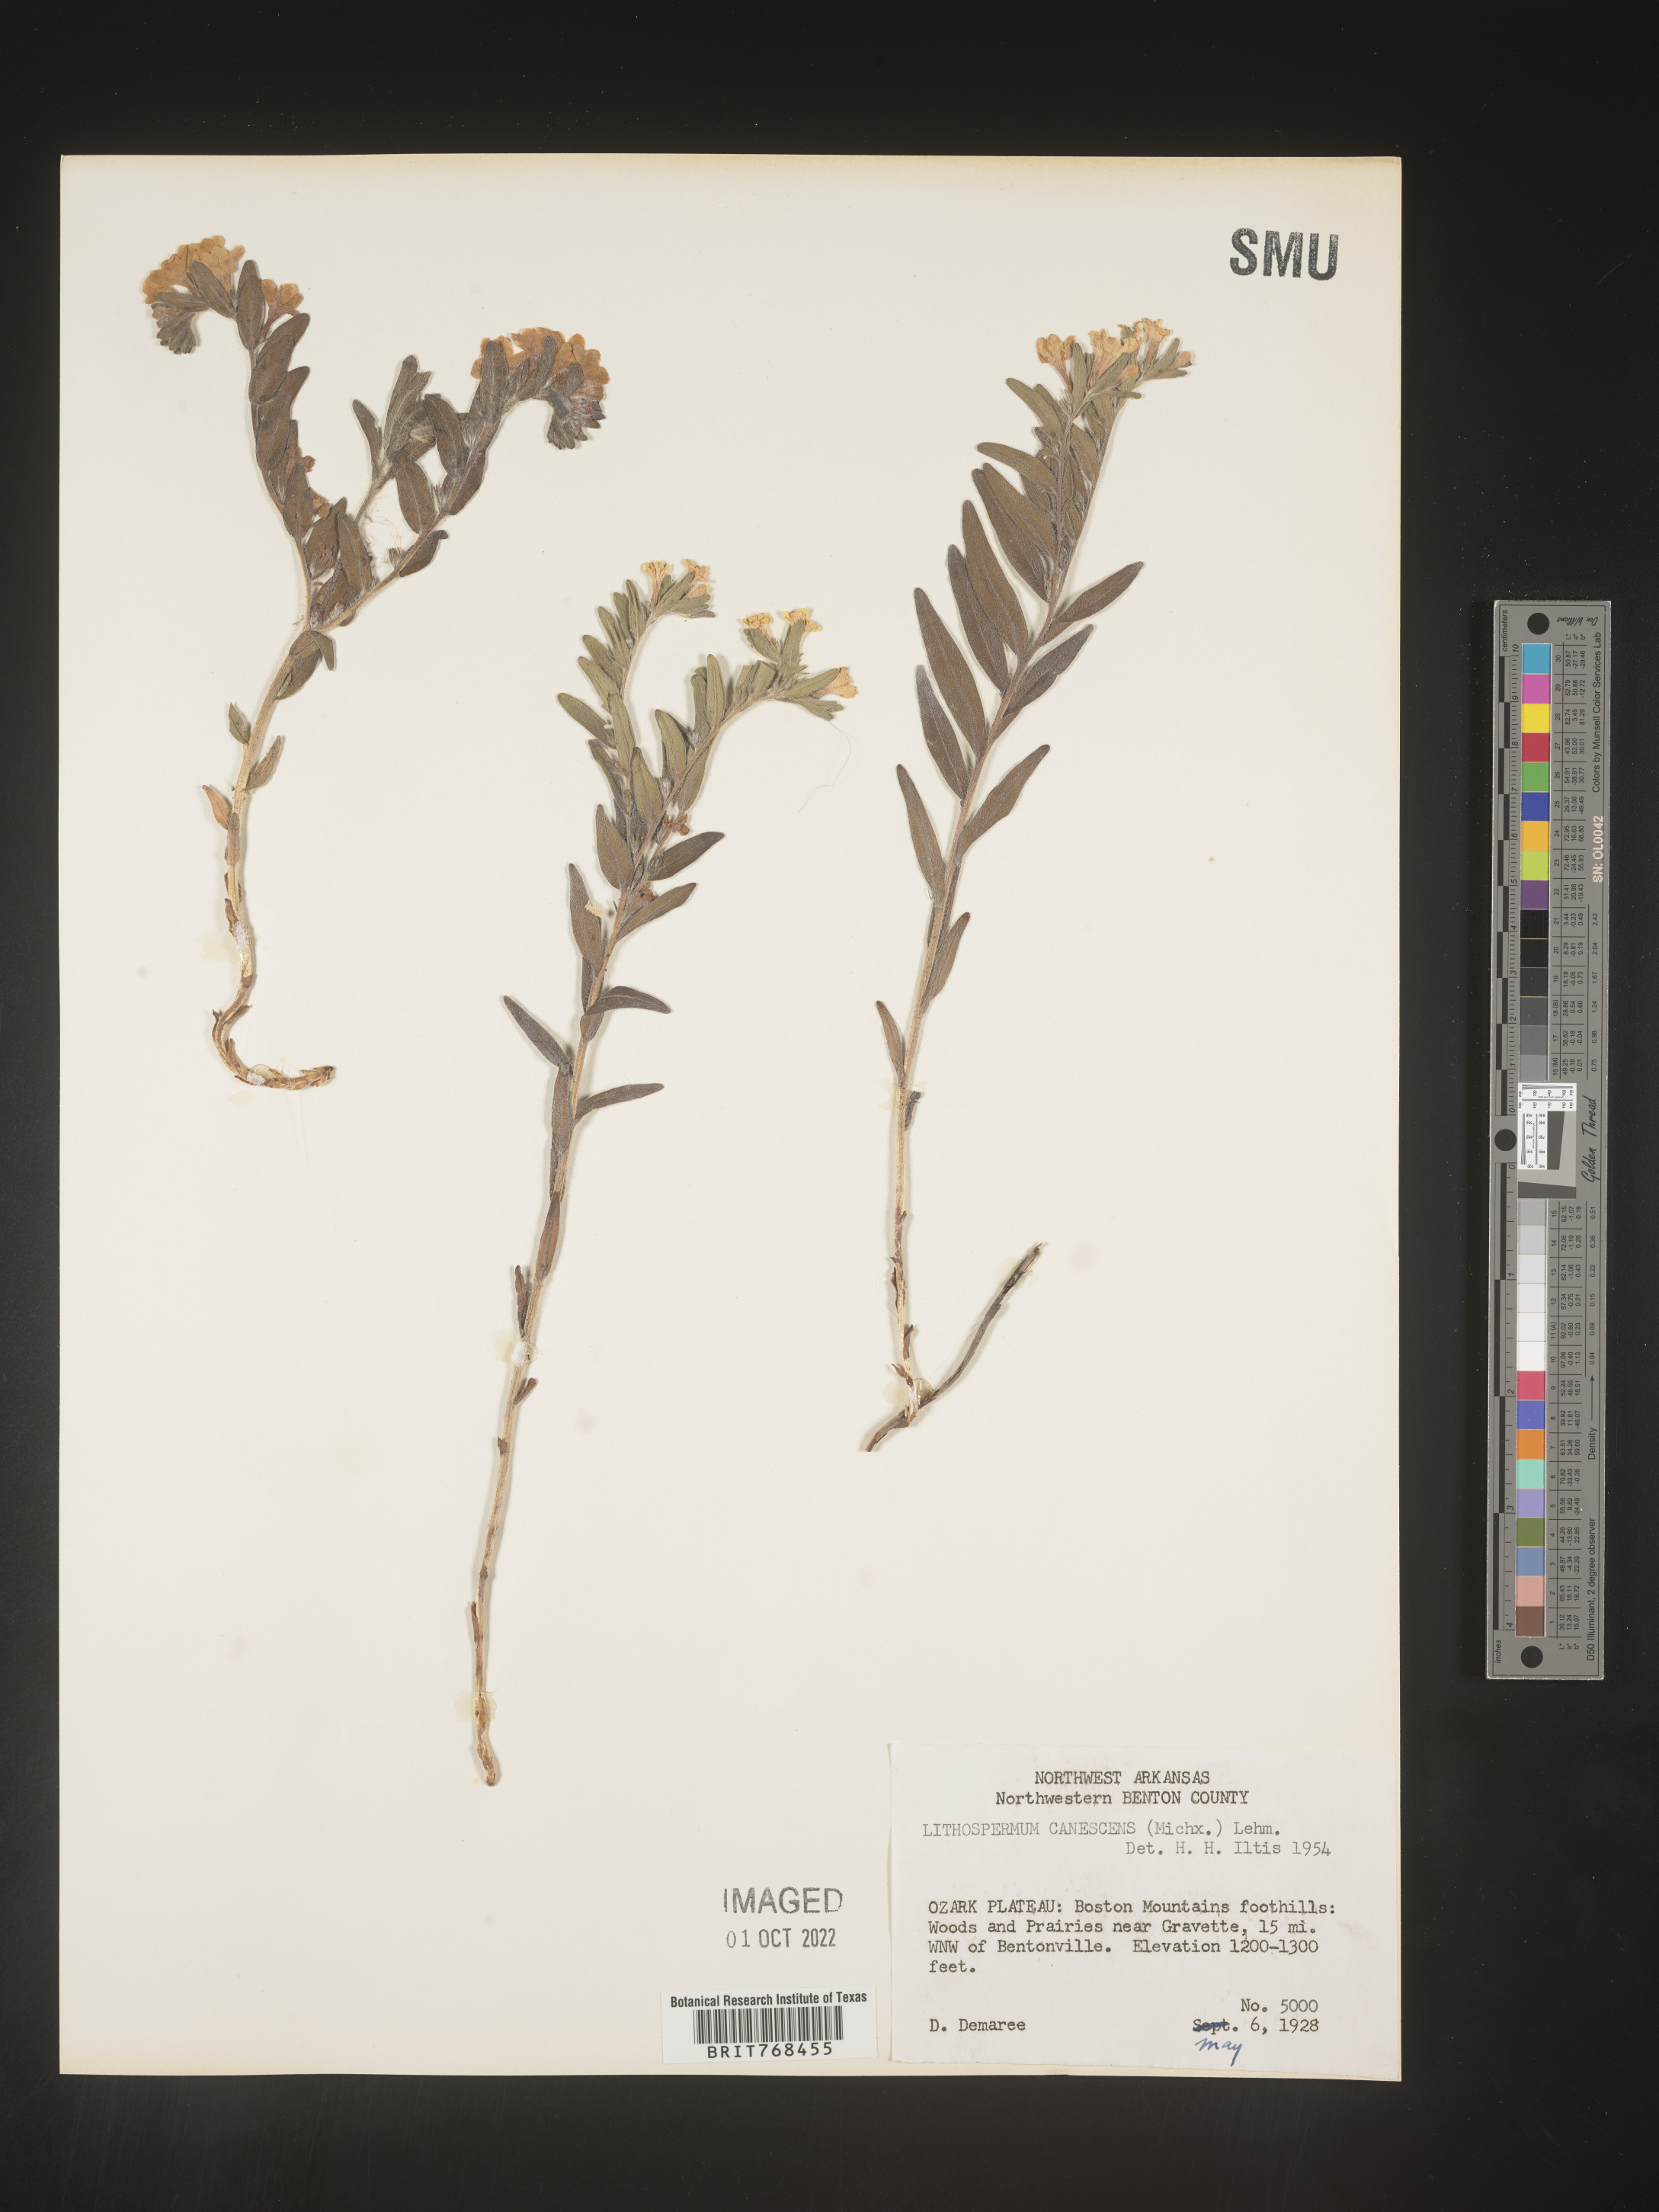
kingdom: Plantae
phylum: Tracheophyta
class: Magnoliopsida
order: Boraginales
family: Boraginaceae
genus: Lithospermum
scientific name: Lithospermum canescens
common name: Hoary puccoon
